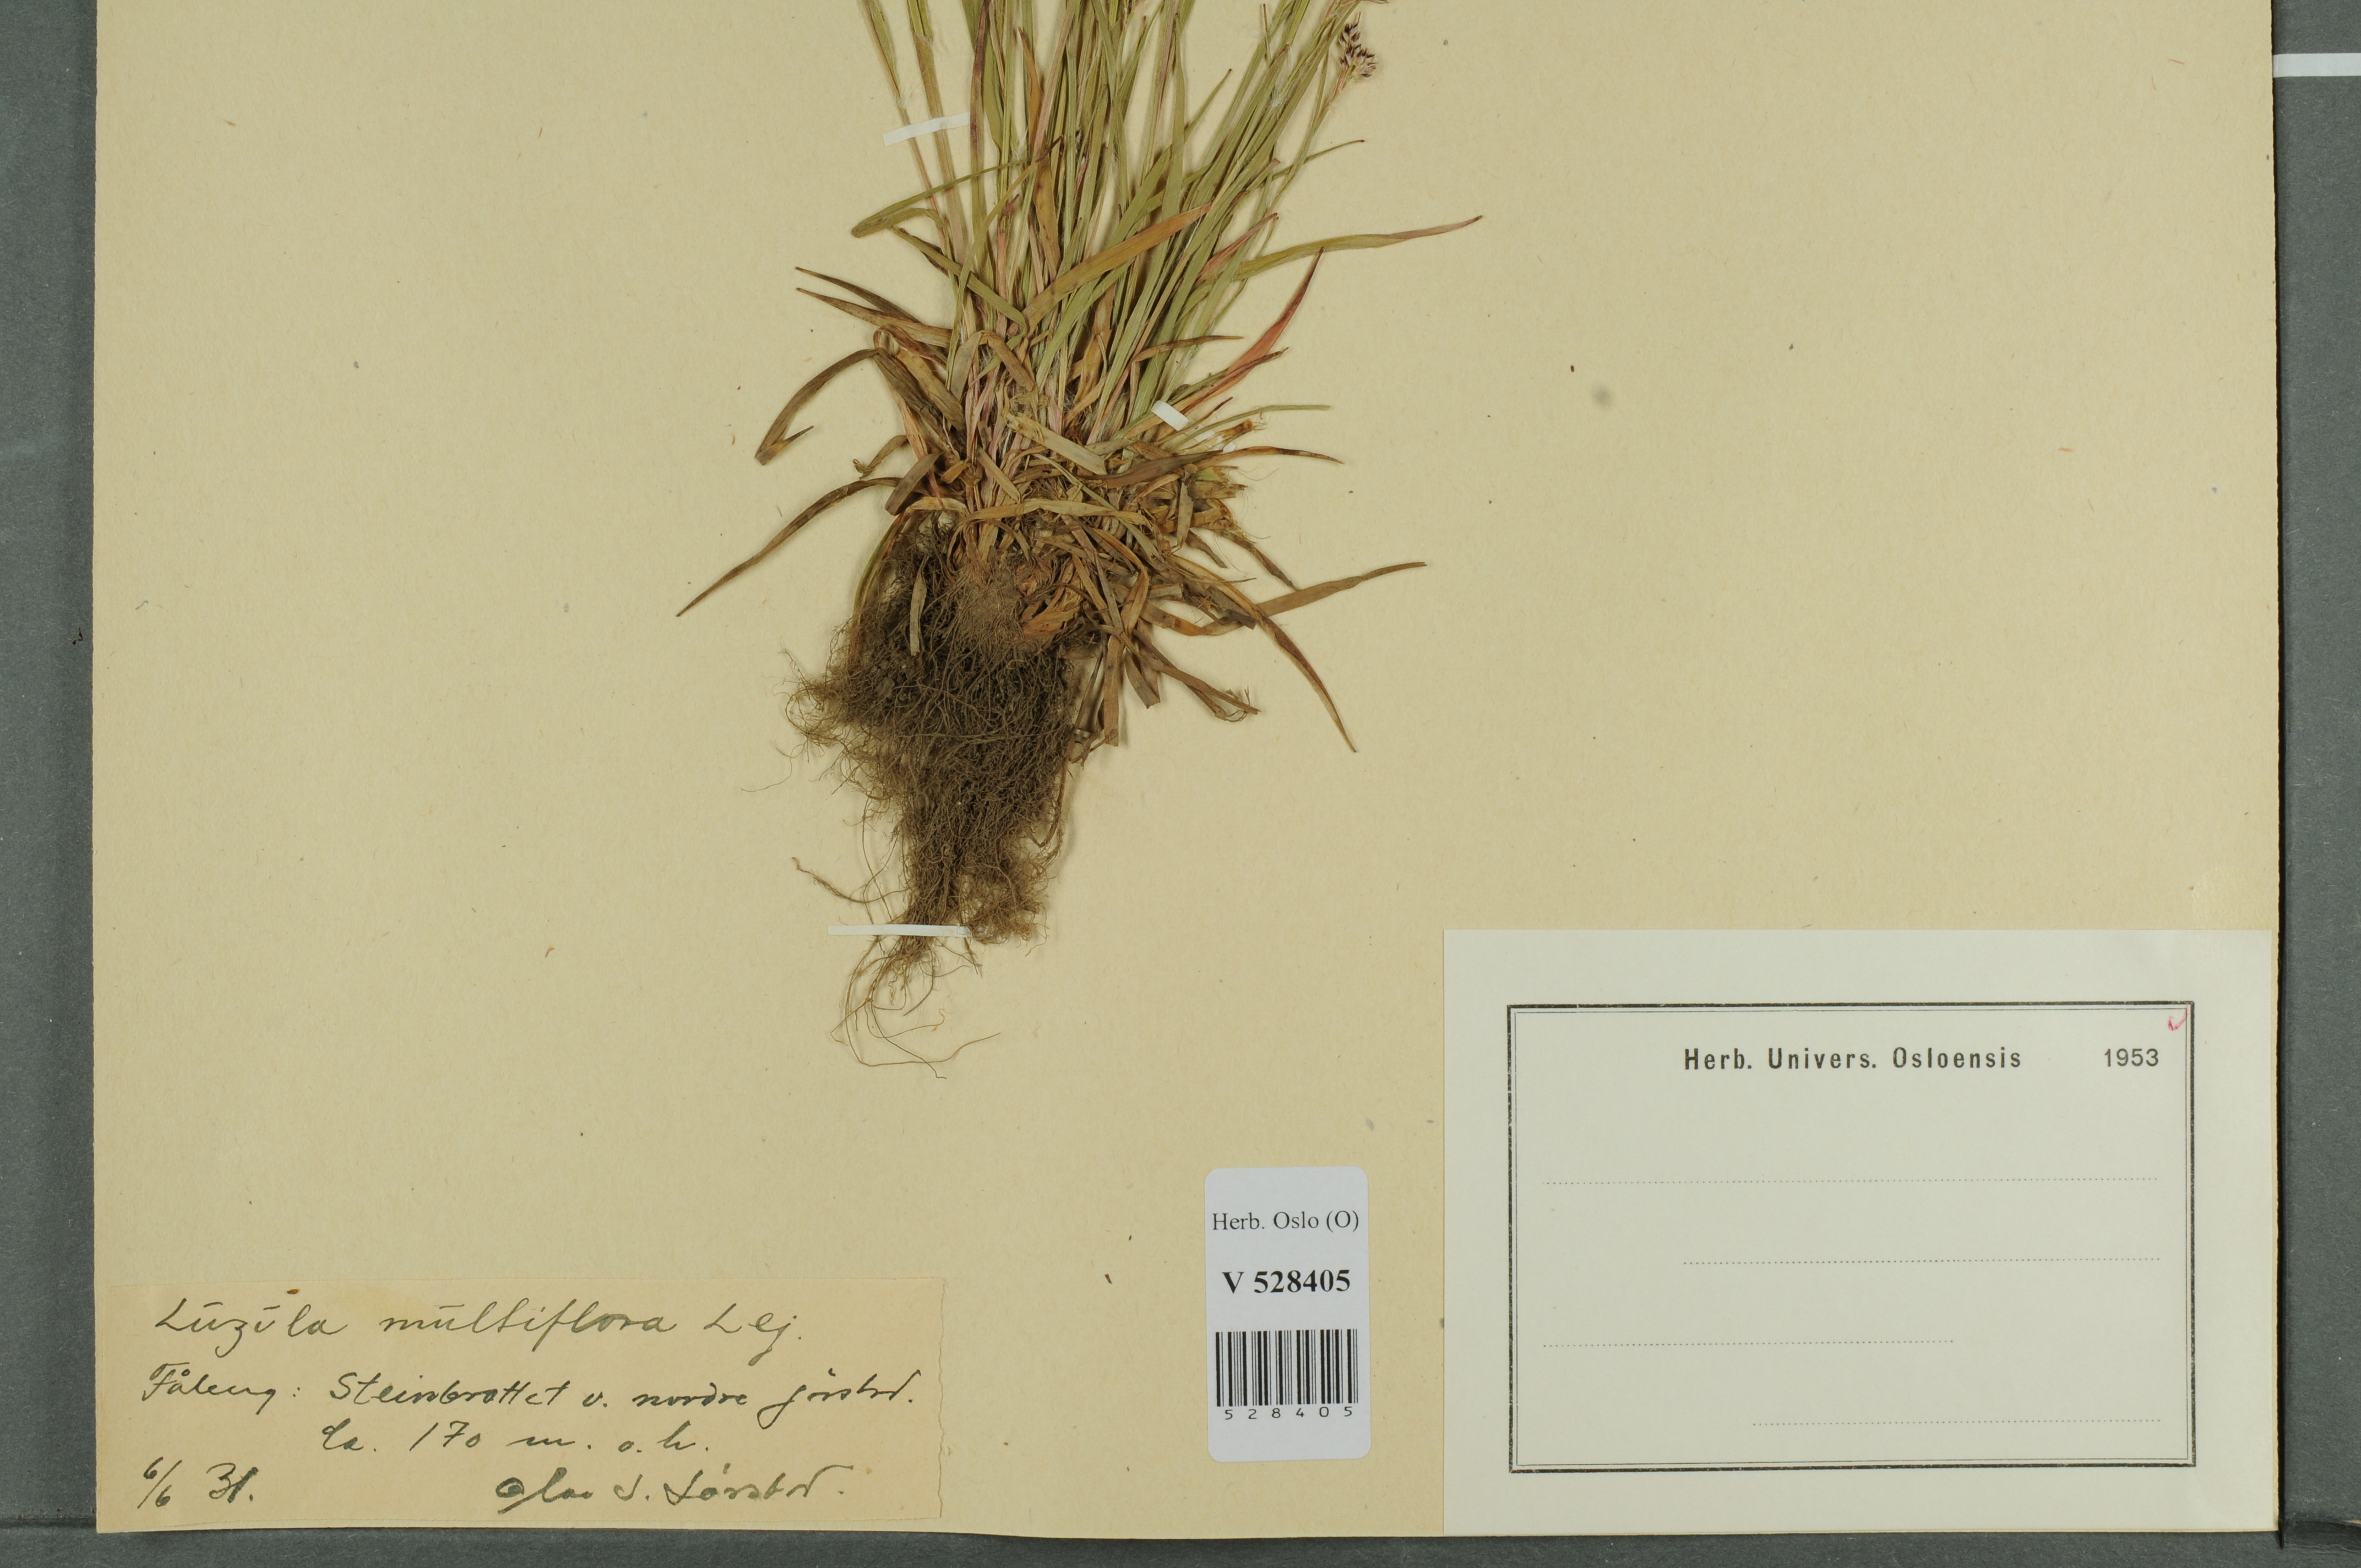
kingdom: Plantae
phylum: Tracheophyta
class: Liliopsida
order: Poales
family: Juncaceae
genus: Luzula
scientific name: Luzula multiflora
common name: Heath wood-rush
